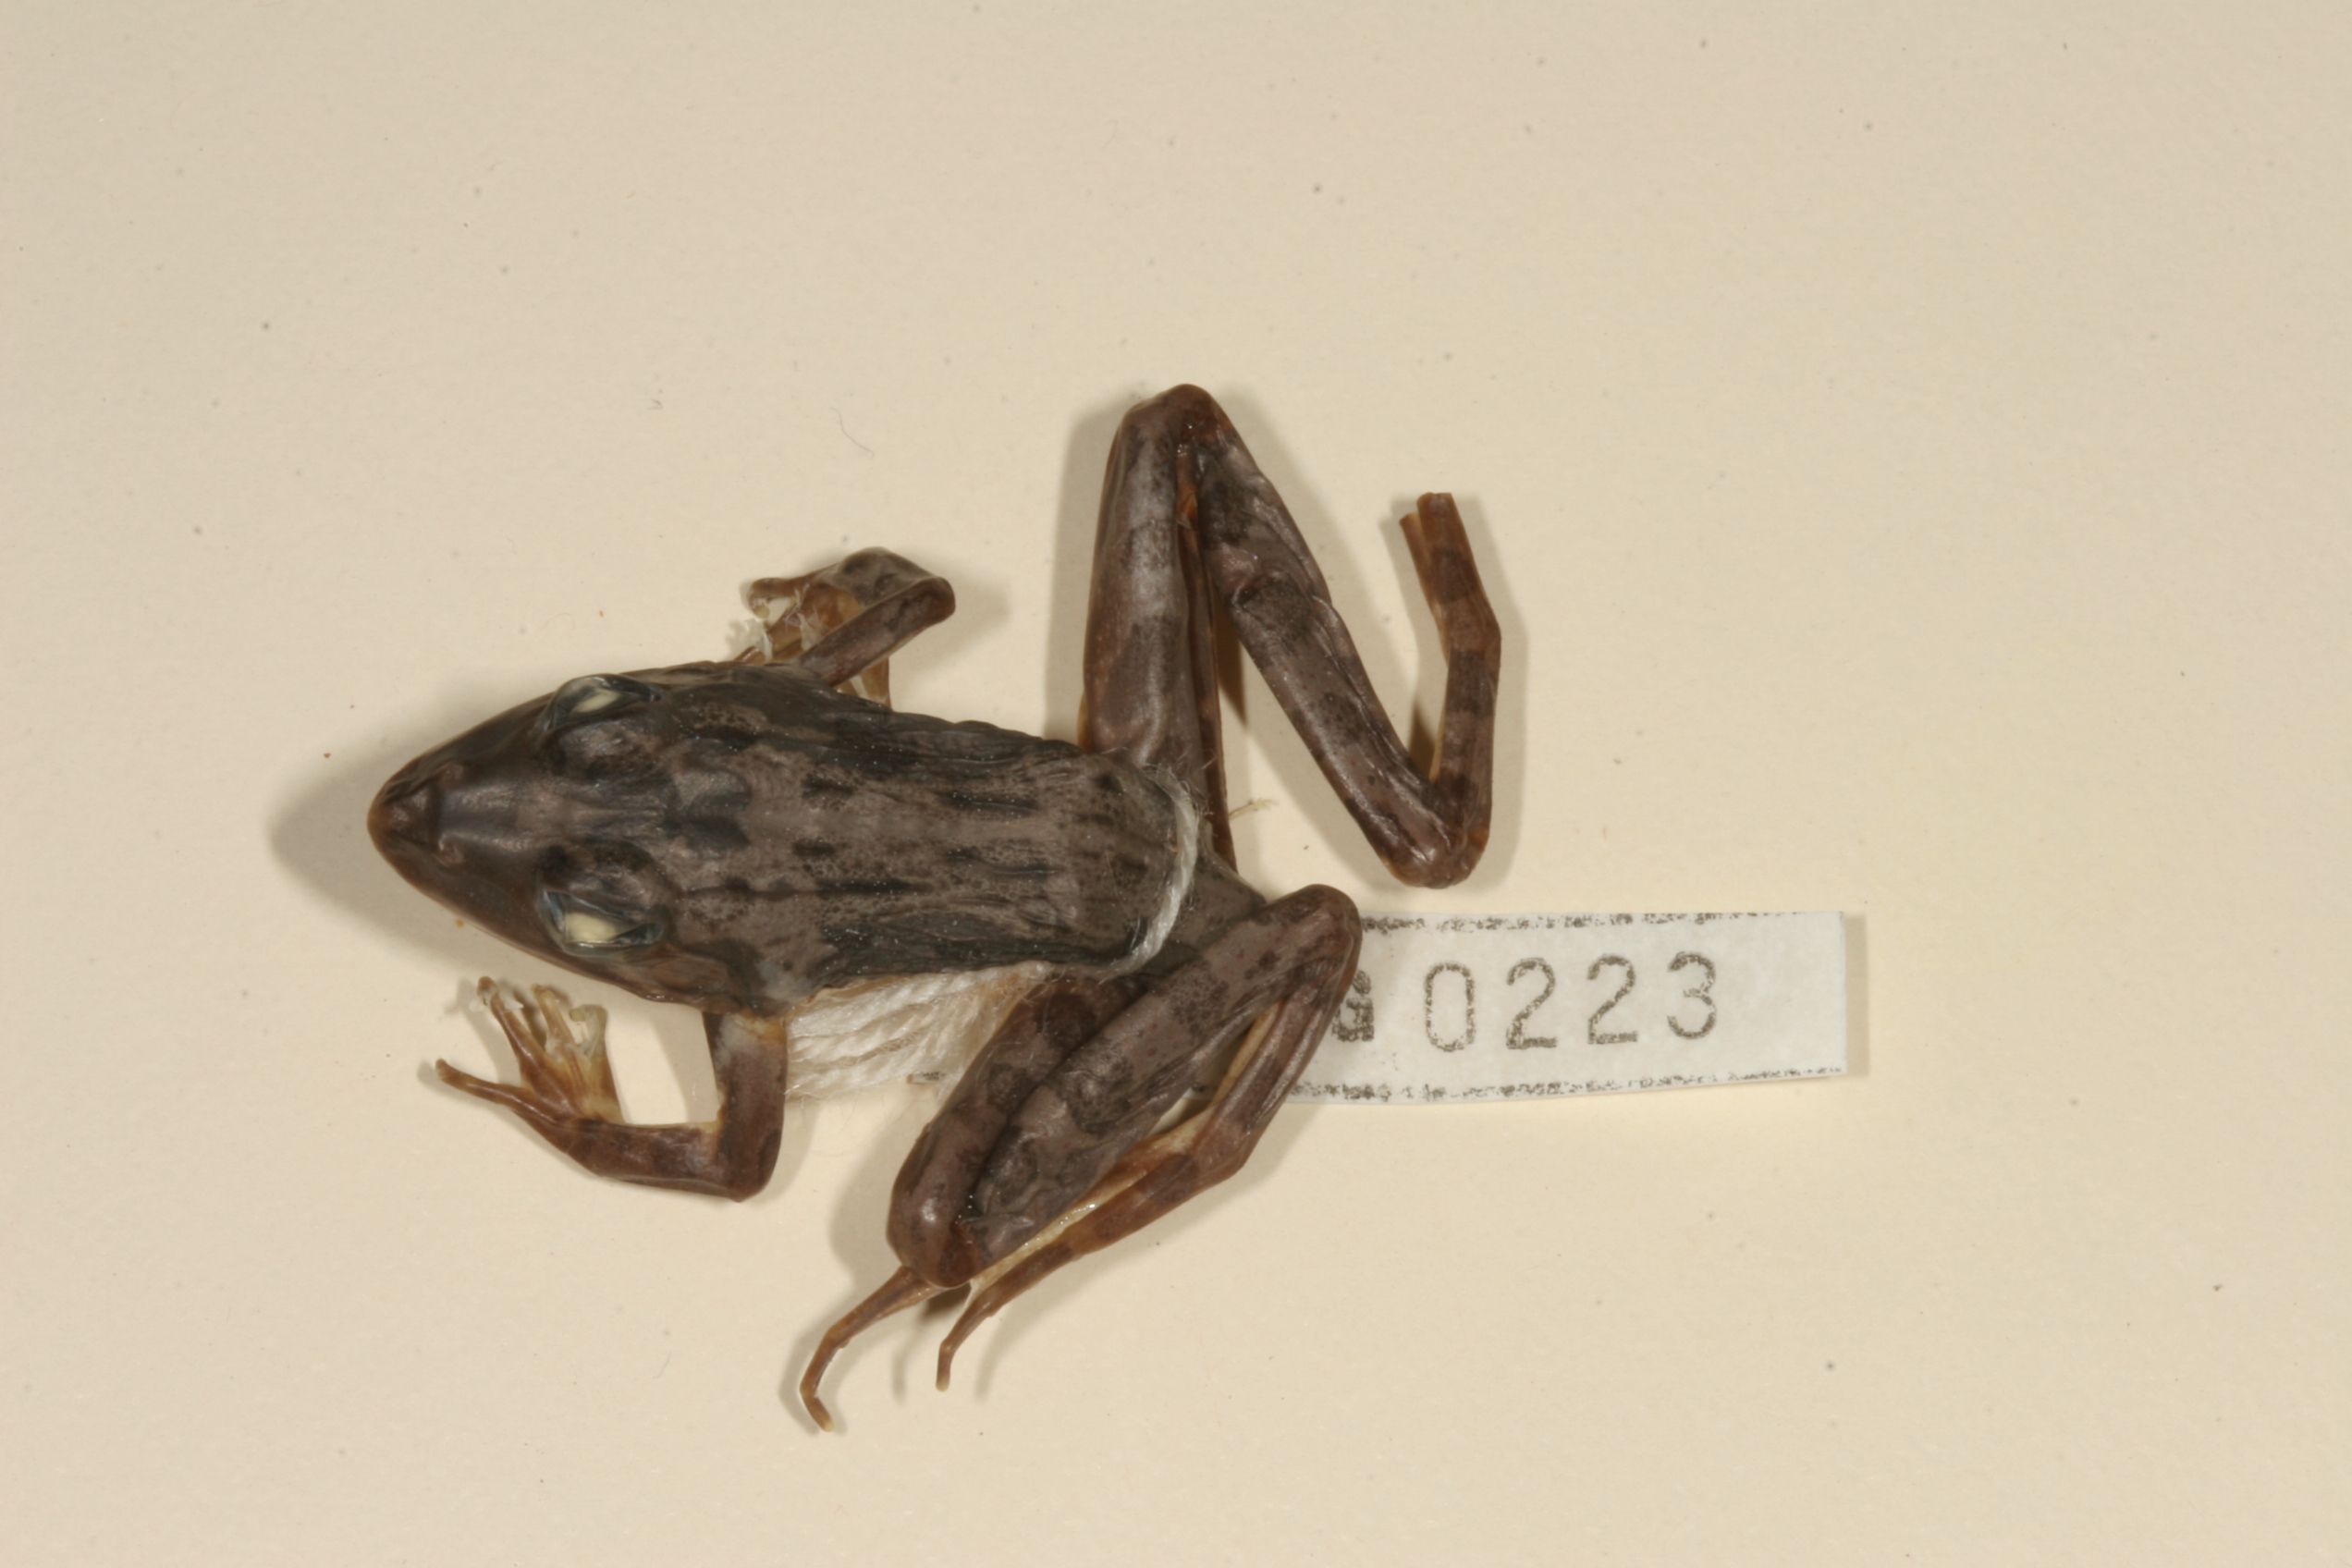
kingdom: Animalia
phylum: Chordata
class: Amphibia
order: Anura
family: Pyxicephalidae
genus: Amietia
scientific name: Amietia angolensis
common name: Dusky-throated frog
